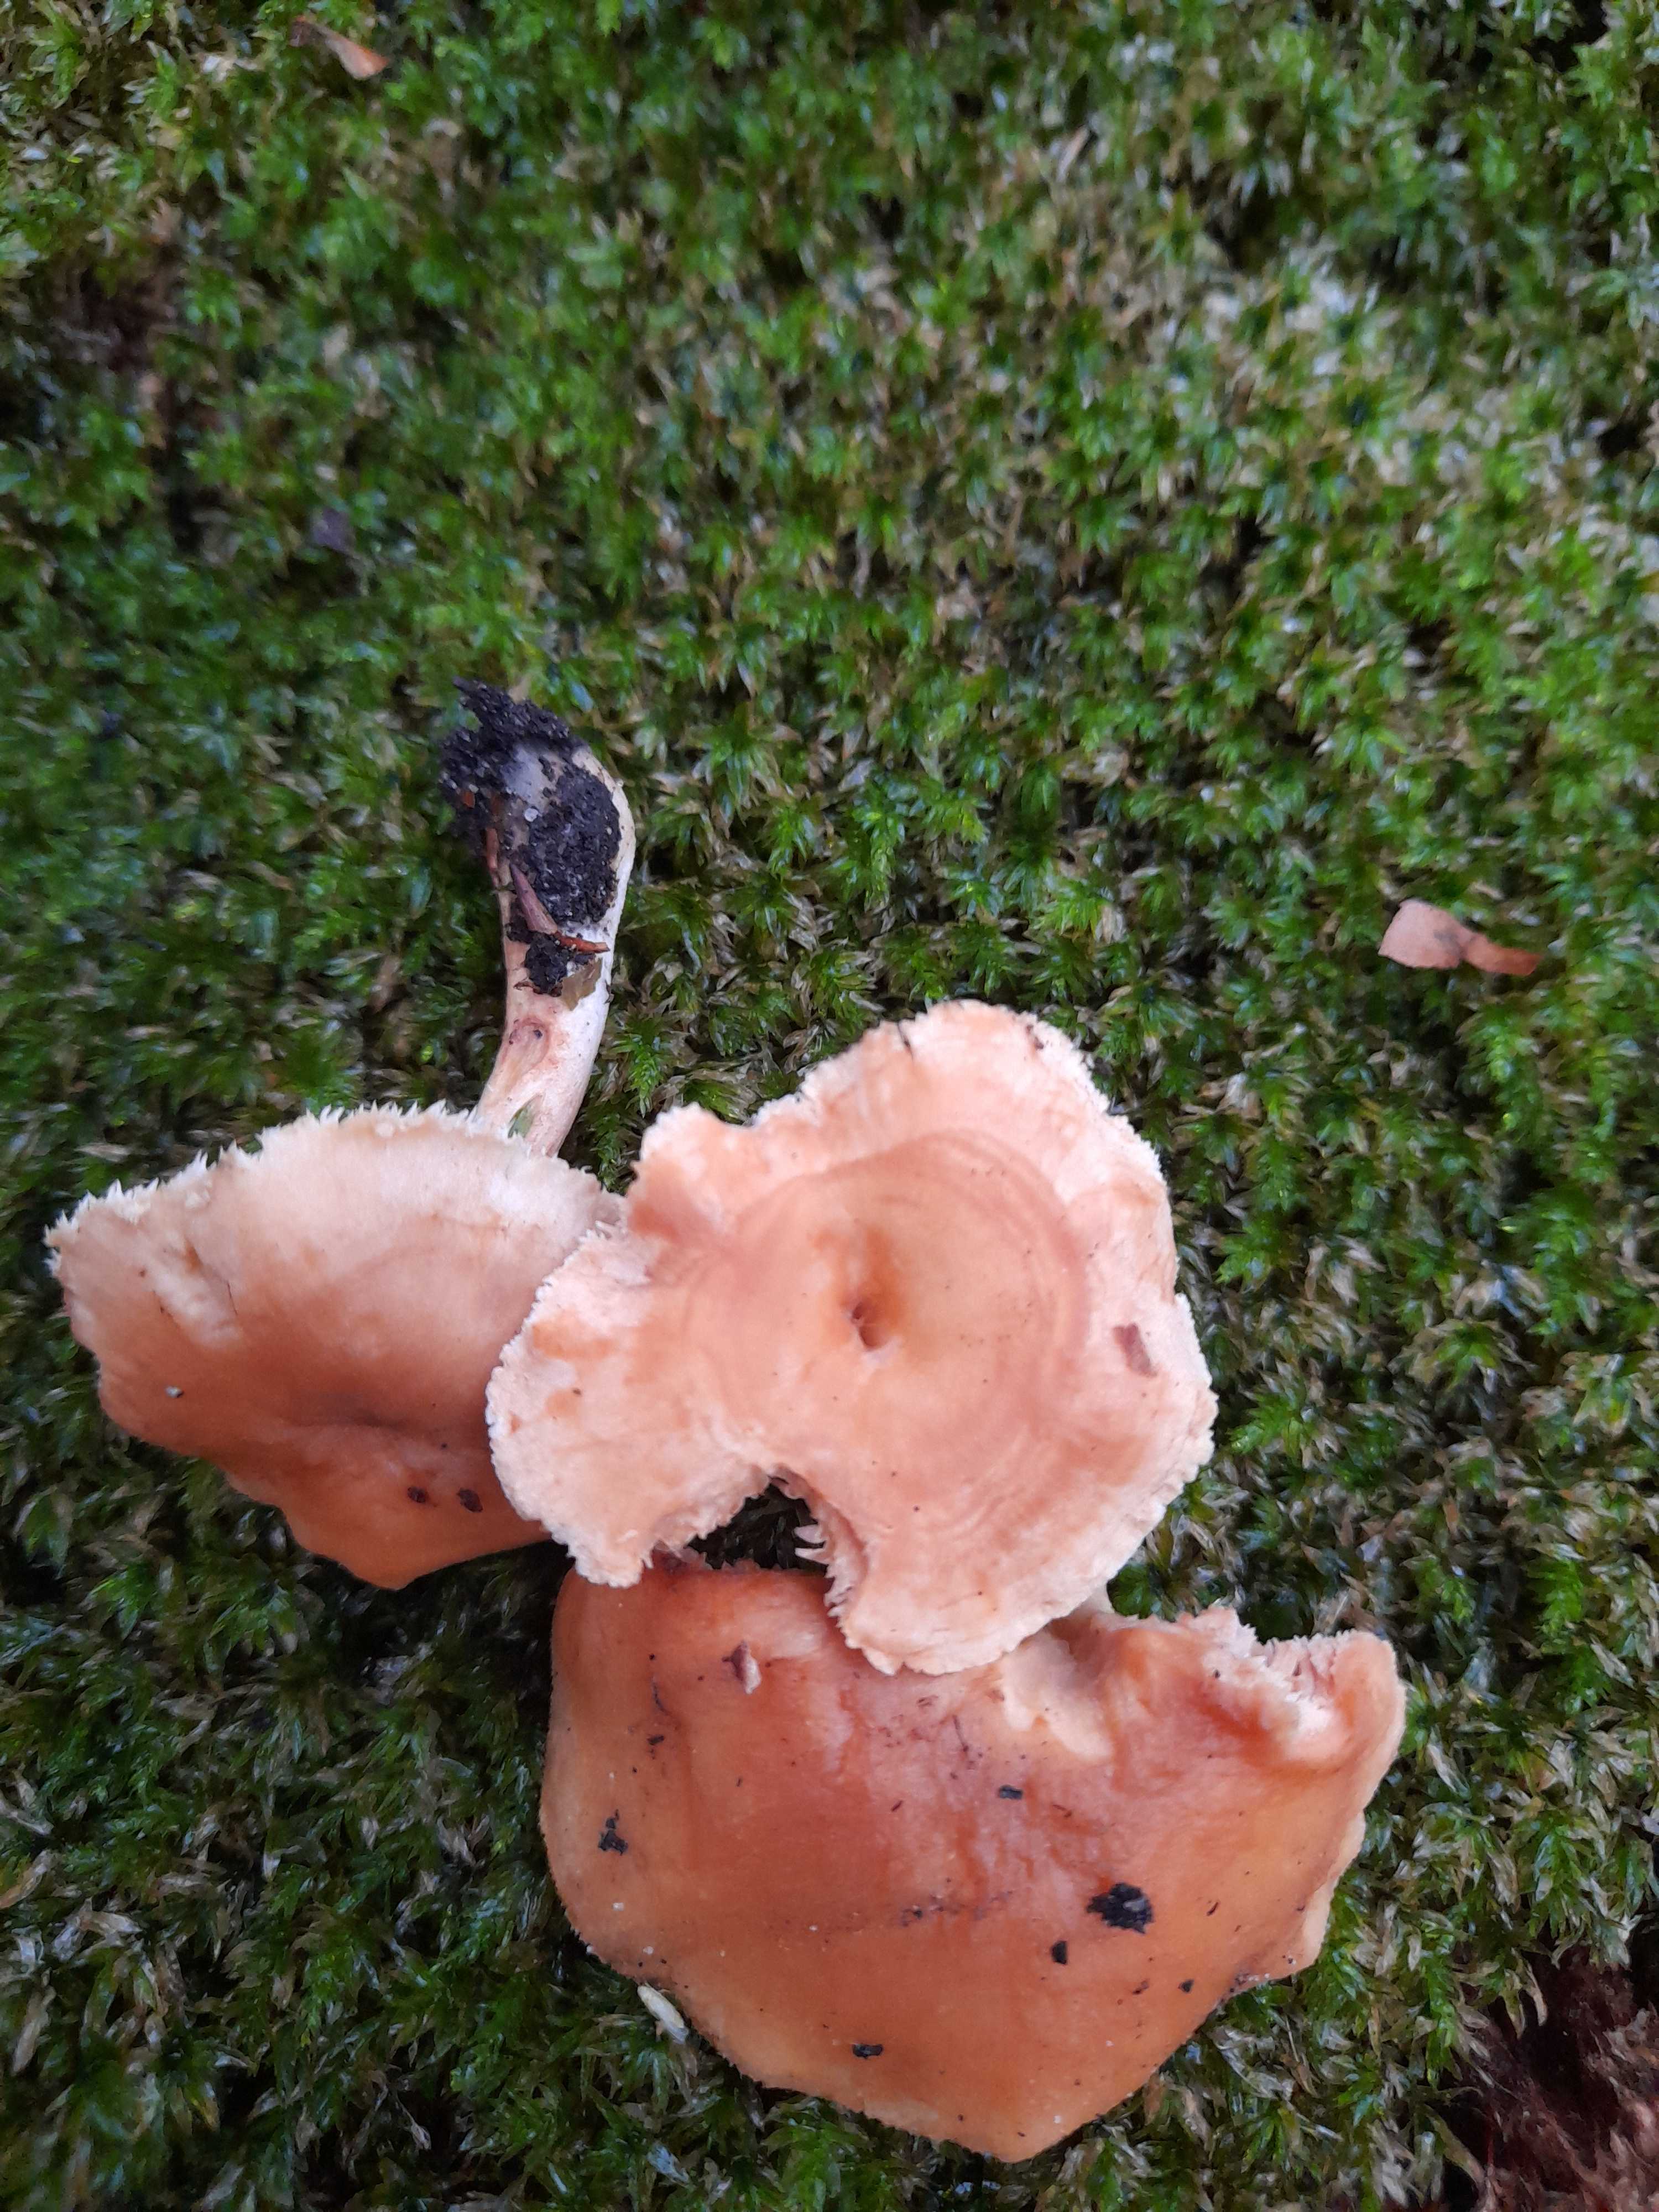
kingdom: Fungi
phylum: Basidiomycota
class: Agaricomycetes
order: Cantharellales
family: Hydnaceae
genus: Hydnum
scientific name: Hydnum
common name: pigsvamp
